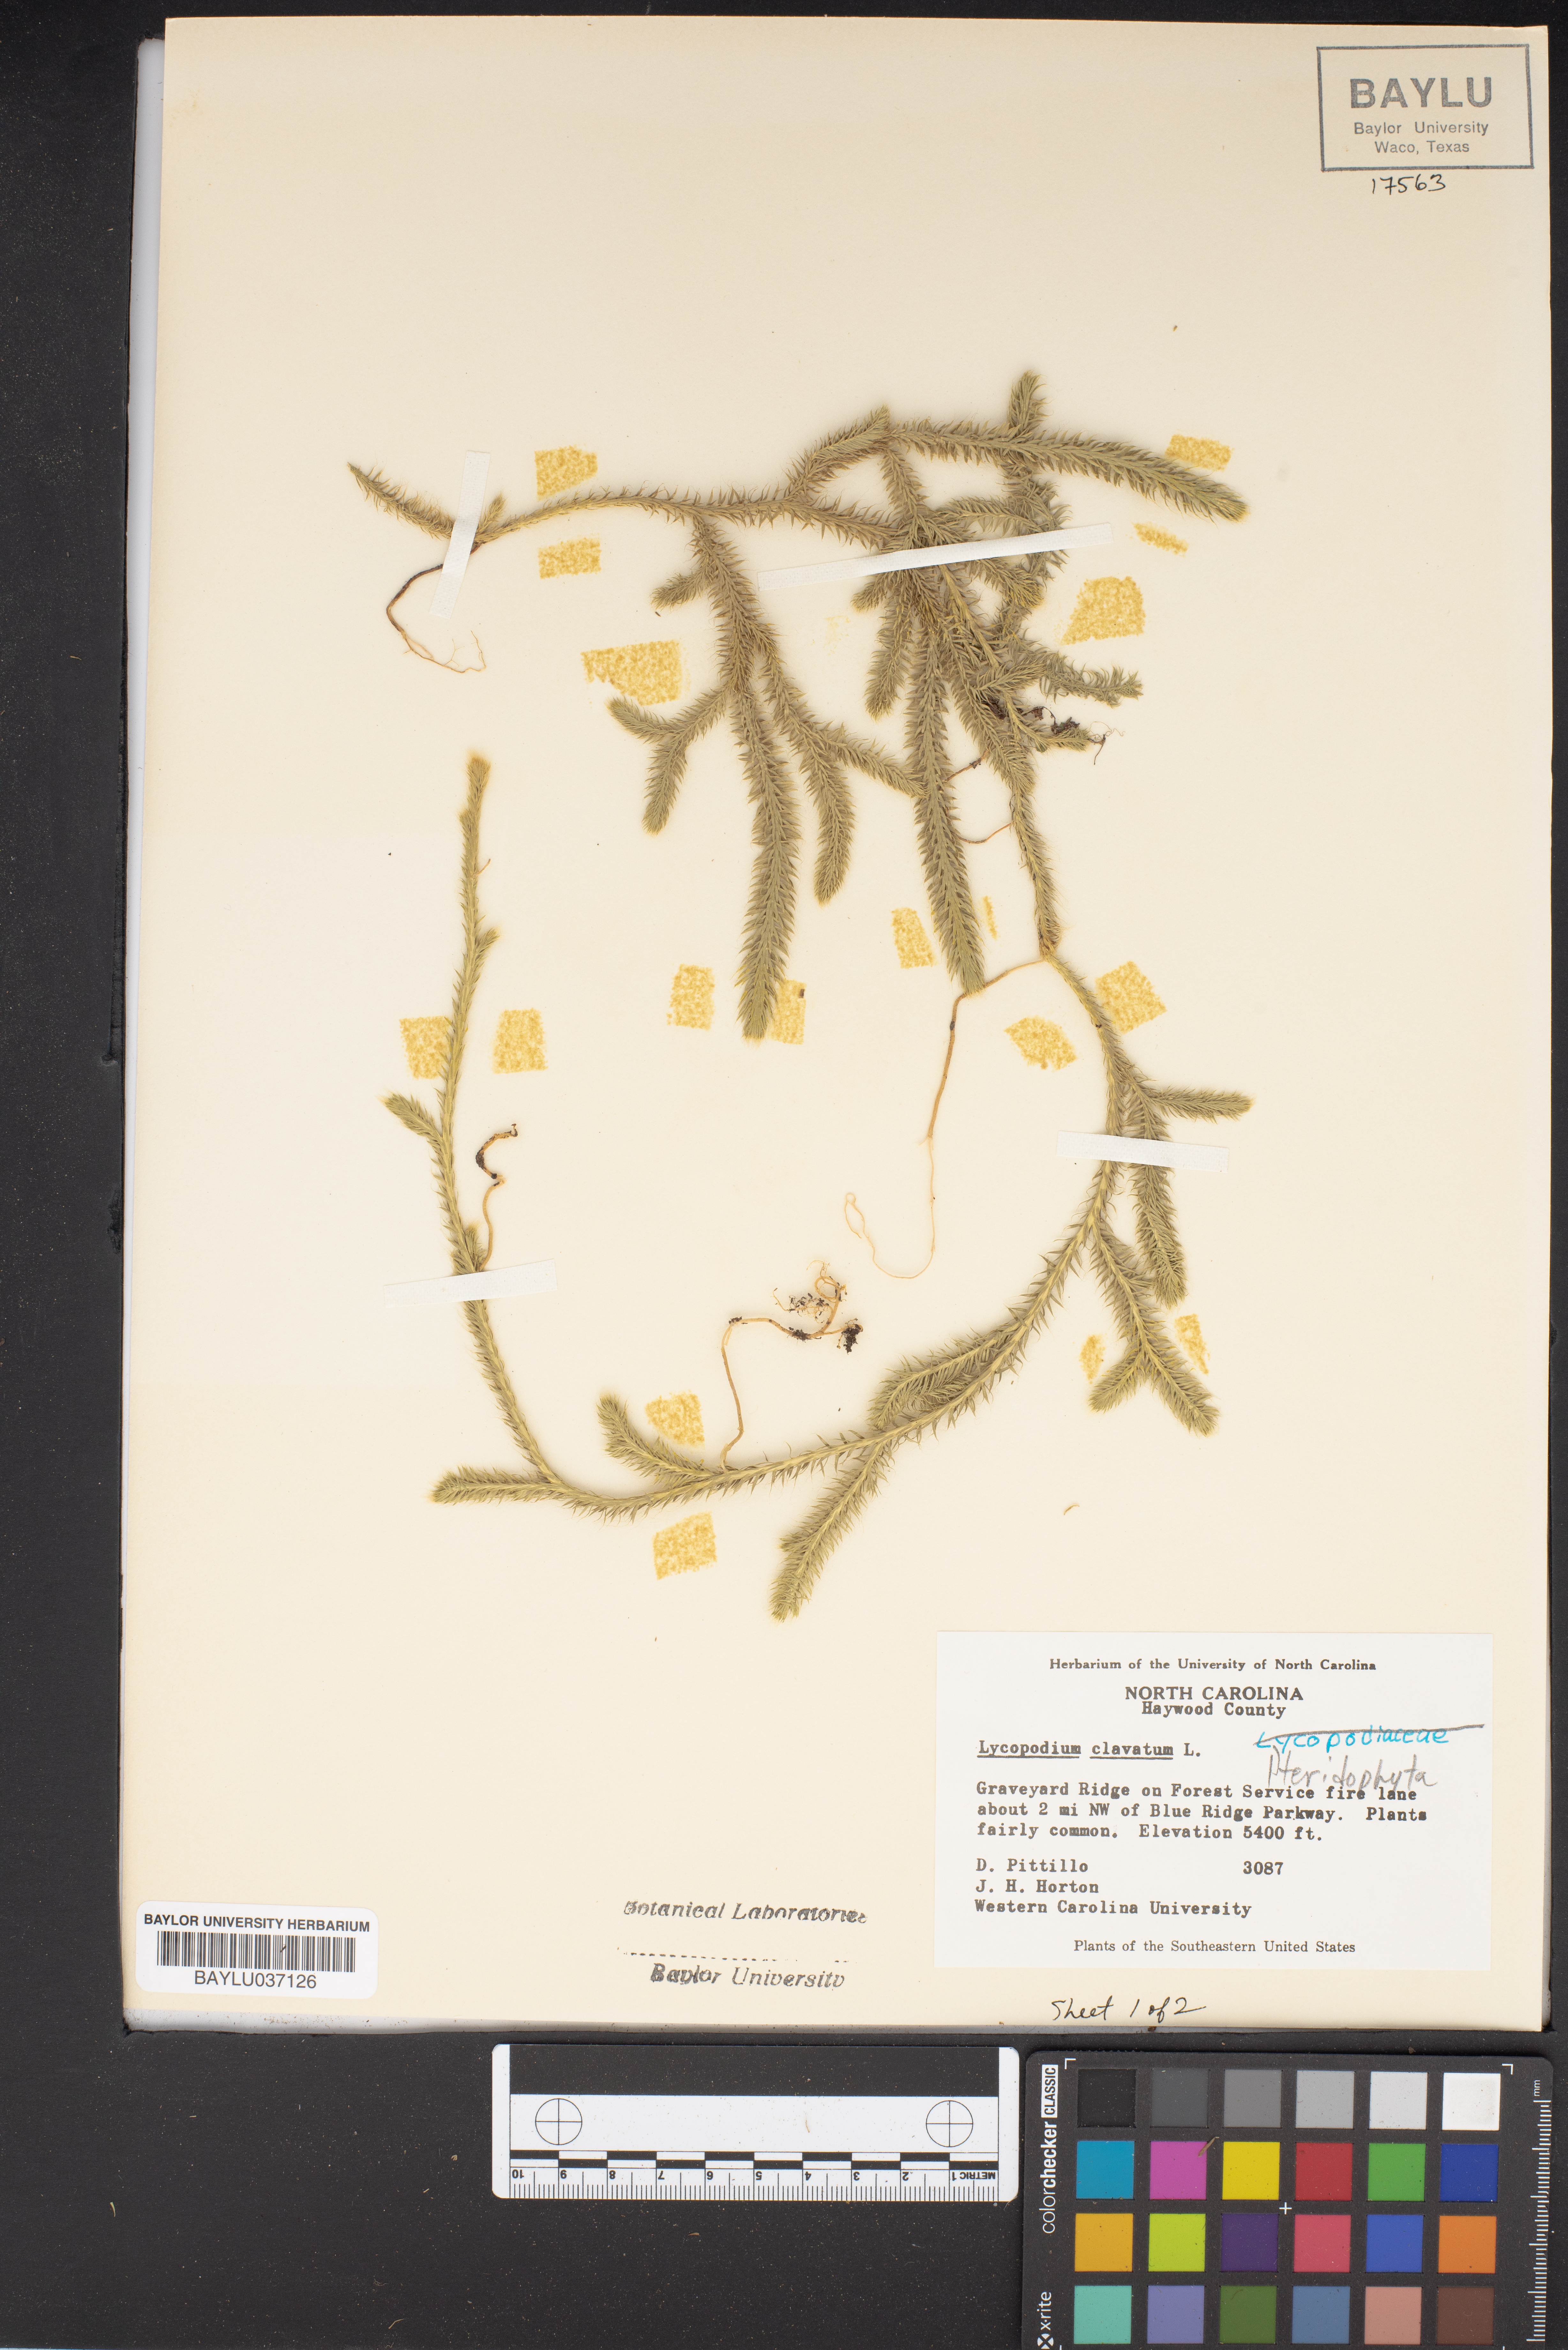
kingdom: Plantae
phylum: Tracheophyta
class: Lycopodiopsida
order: Lycopodiales
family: Lycopodiaceae
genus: Lycopodium
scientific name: Lycopodium clavatum
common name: Stag's-horn clubmoss
